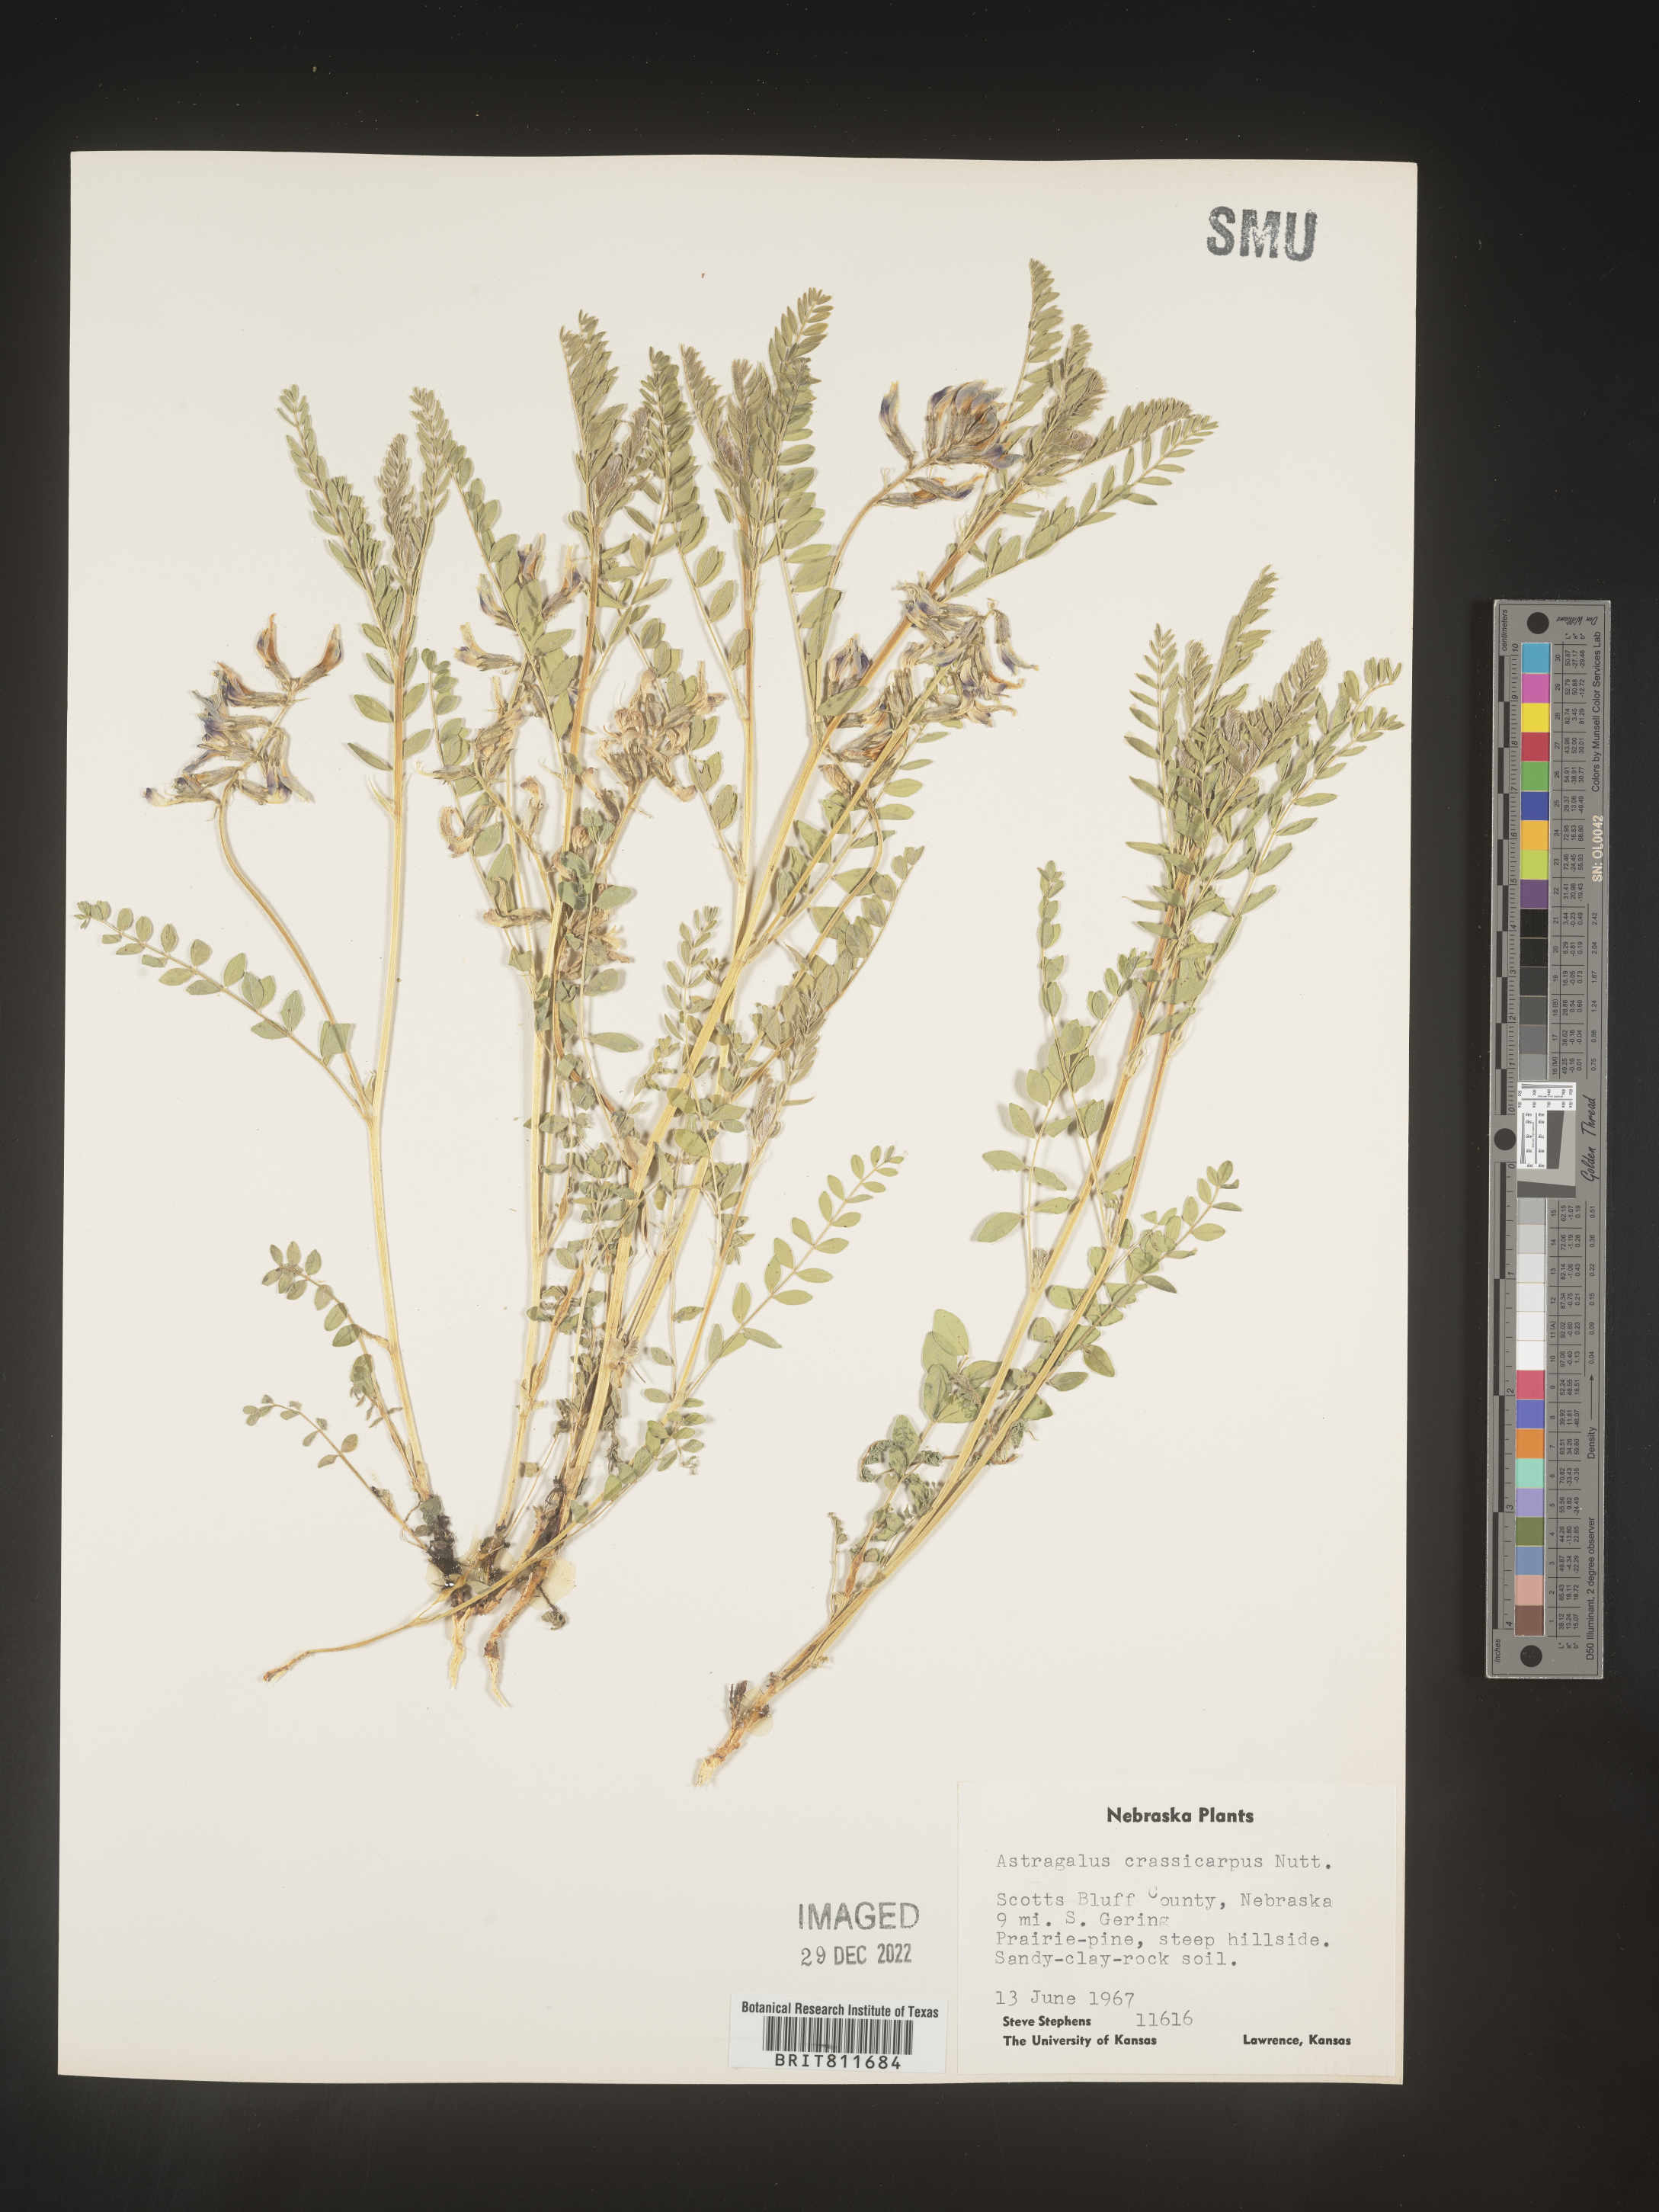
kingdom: Plantae
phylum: Tracheophyta
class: Magnoliopsida
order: Fabales
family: Fabaceae
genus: Astragalus
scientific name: Astragalus crassicarpus
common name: Ground-plum milk-vetch
